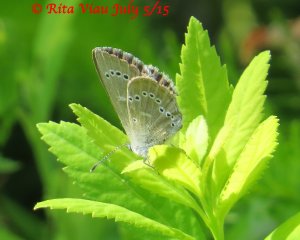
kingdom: Animalia
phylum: Arthropoda
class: Insecta
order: Lepidoptera
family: Lycaenidae
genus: Glaucopsyche
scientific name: Glaucopsyche lygdamus
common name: Silvery Blue
